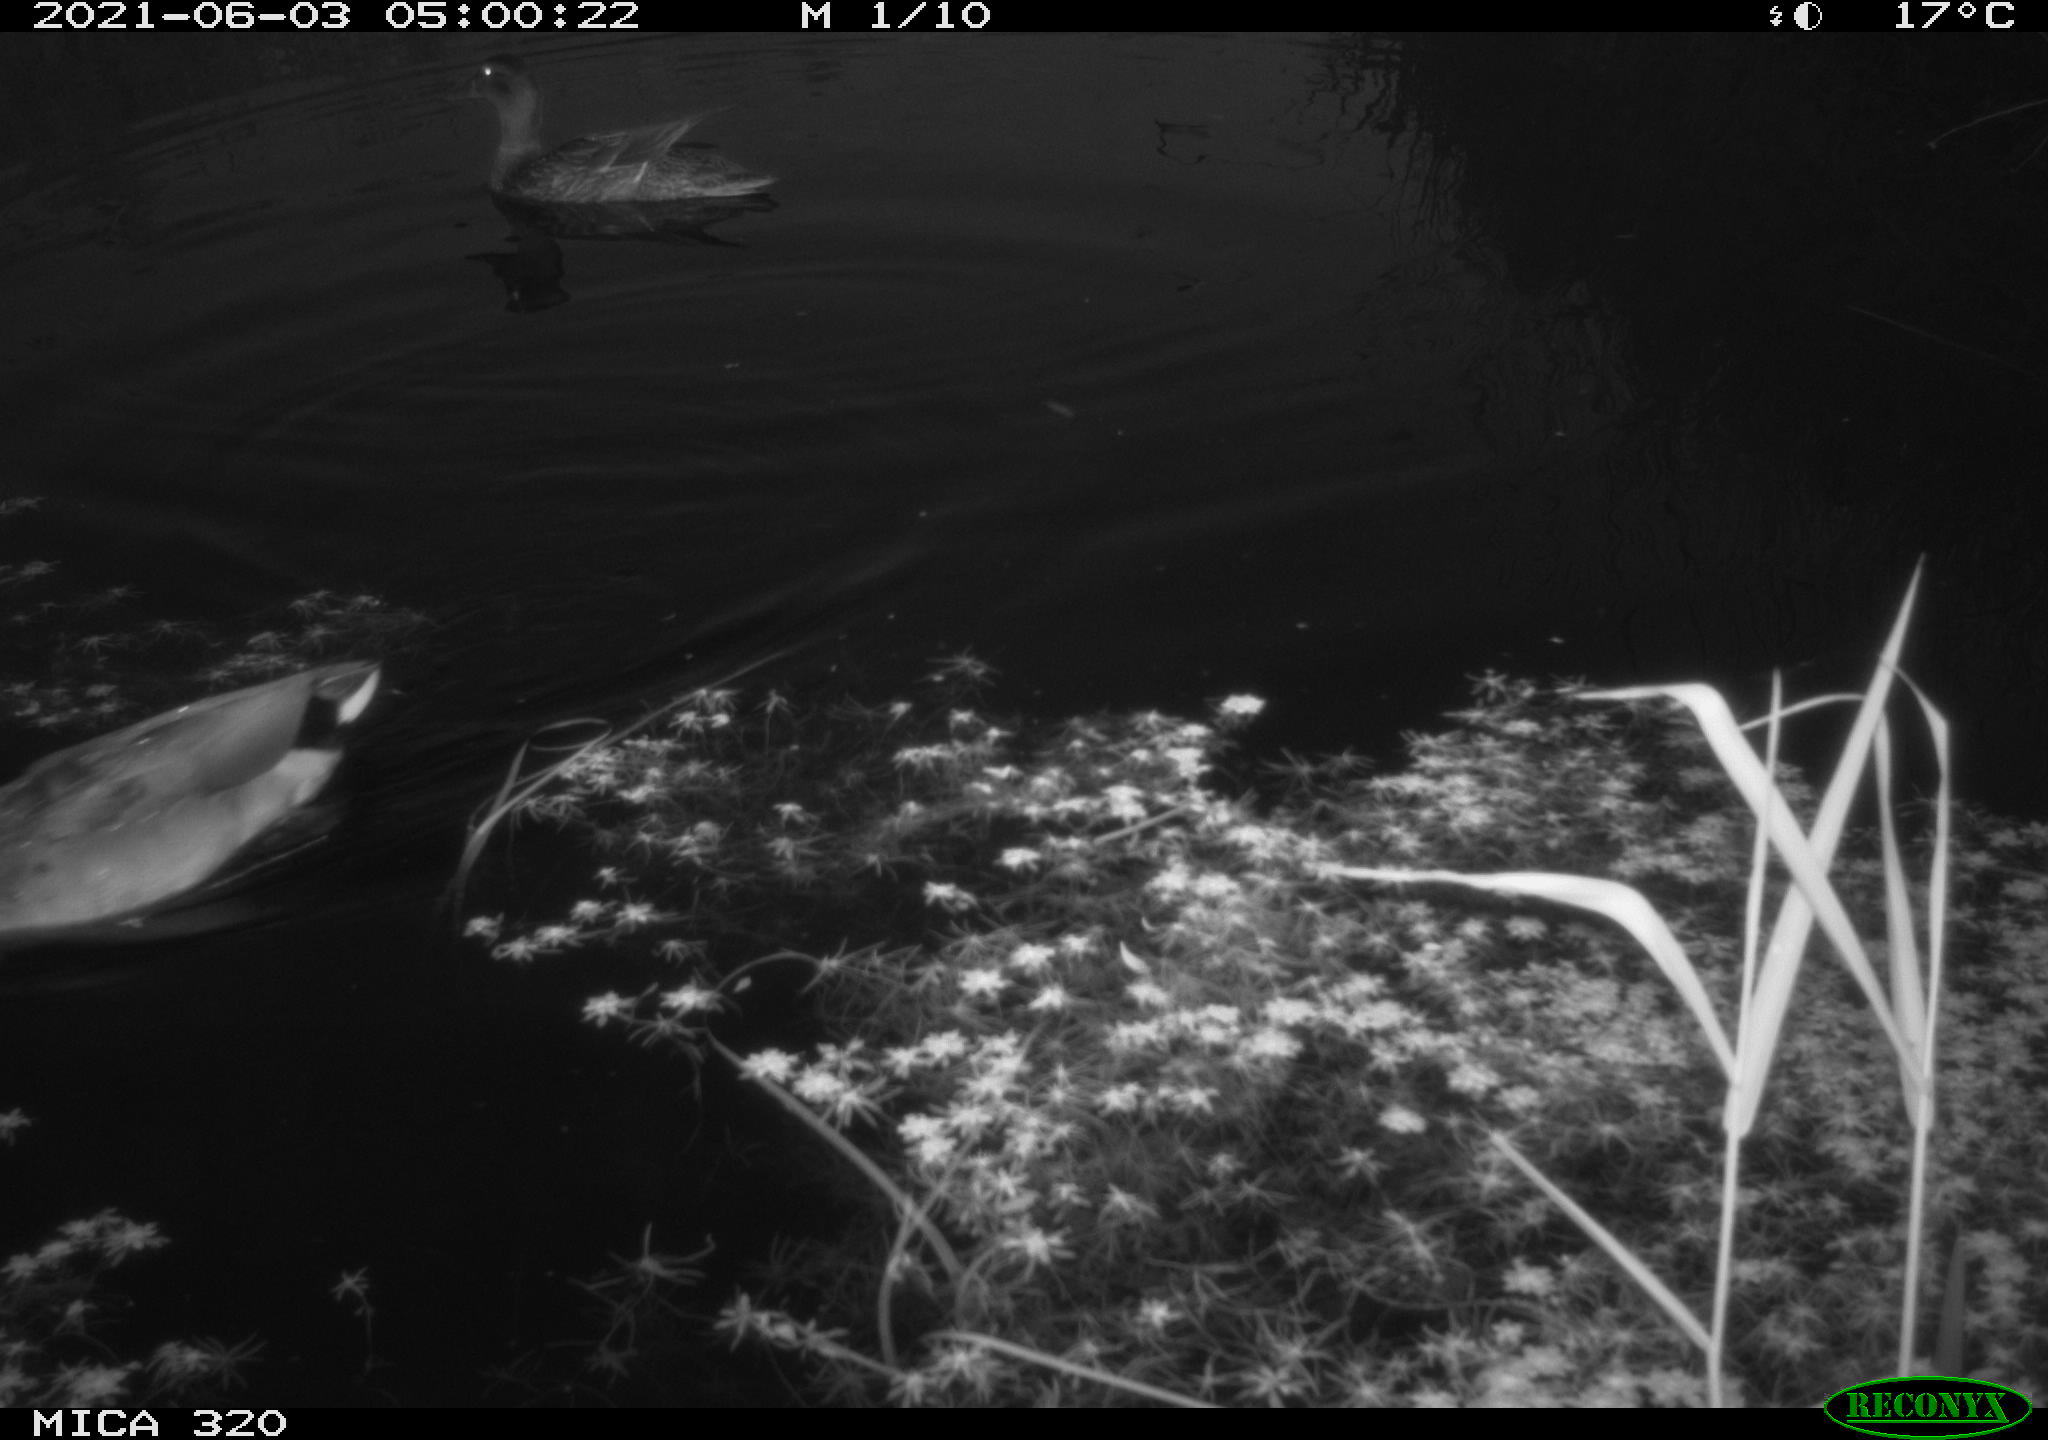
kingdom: Animalia
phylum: Chordata
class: Aves
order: Anseriformes
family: Anatidae
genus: Anas
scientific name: Anas platyrhynchos
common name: Mallard
